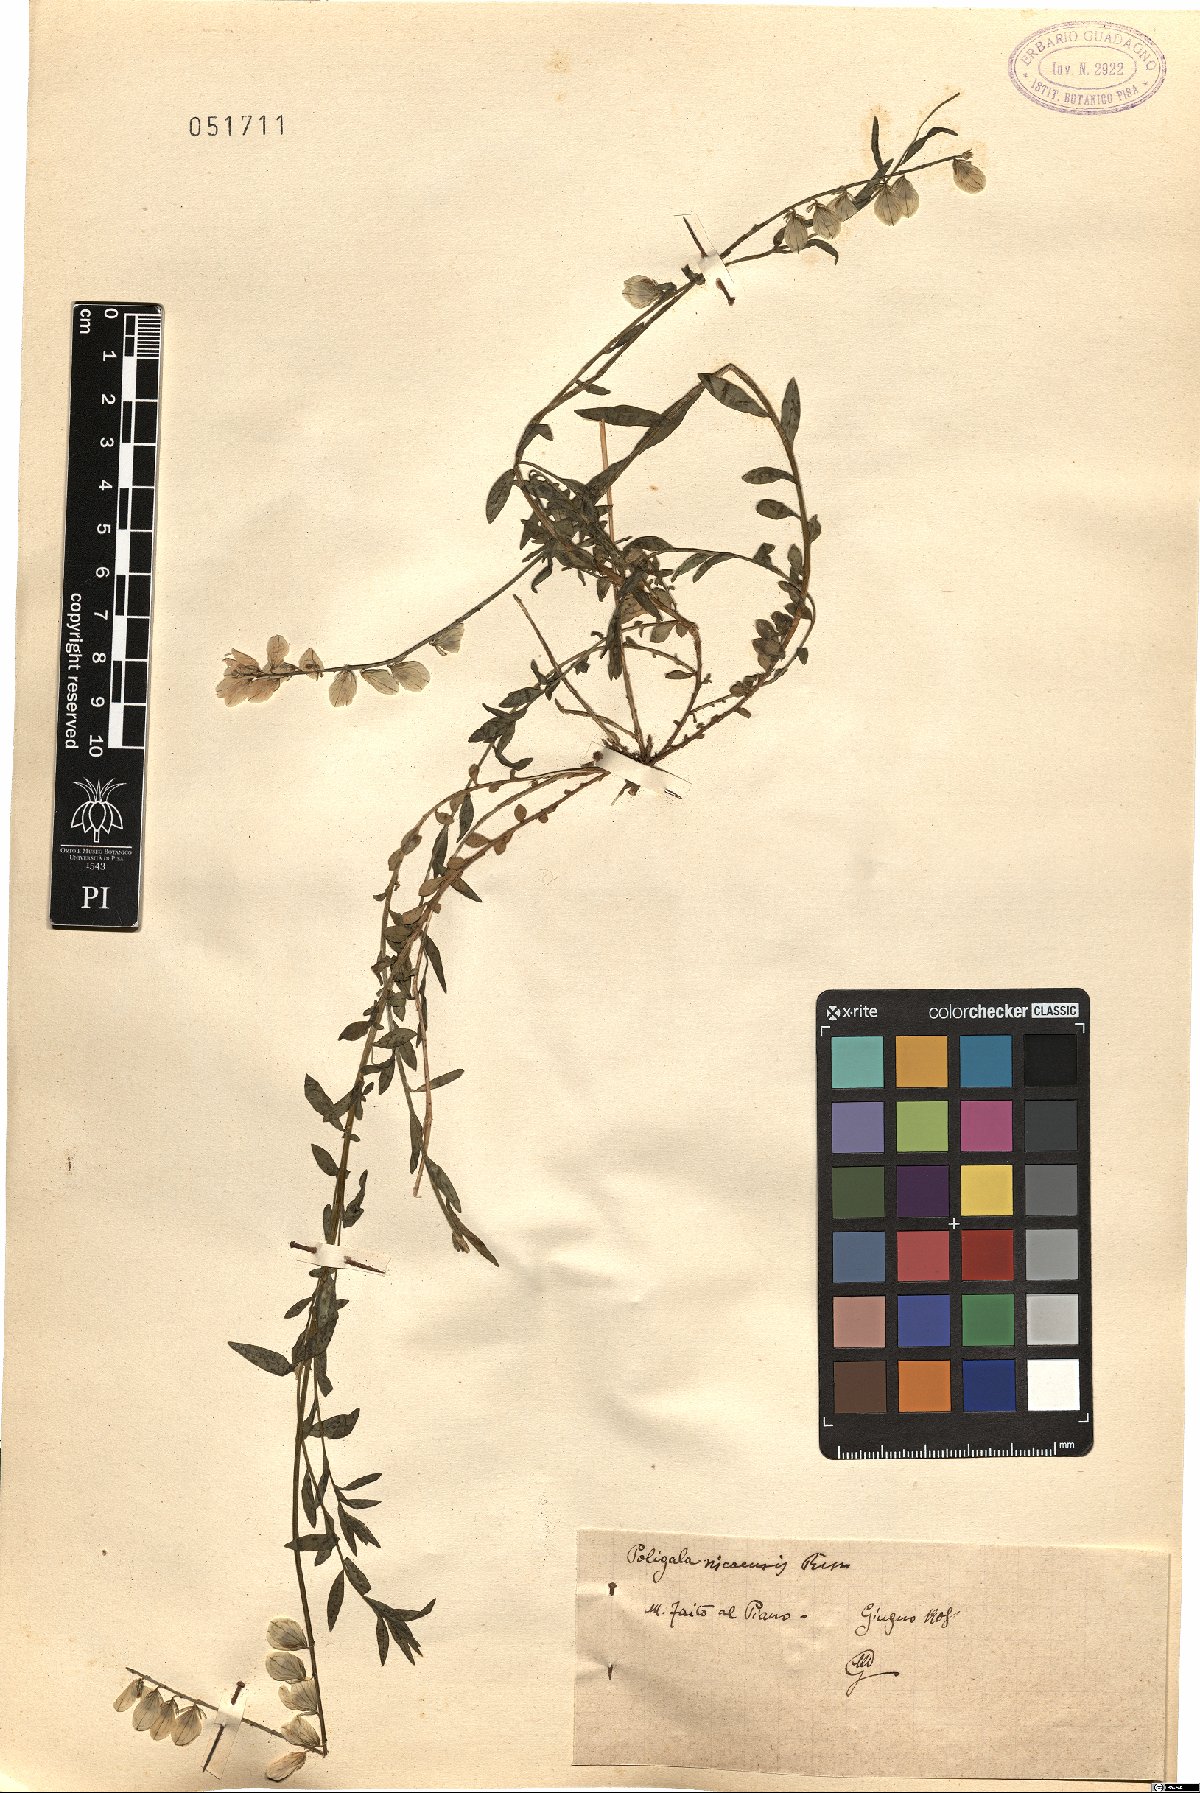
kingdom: Plantae
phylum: Tracheophyta
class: Magnoliopsida
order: Fabales
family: Polygalaceae
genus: Polygala
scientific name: Polygala nicaeensis
